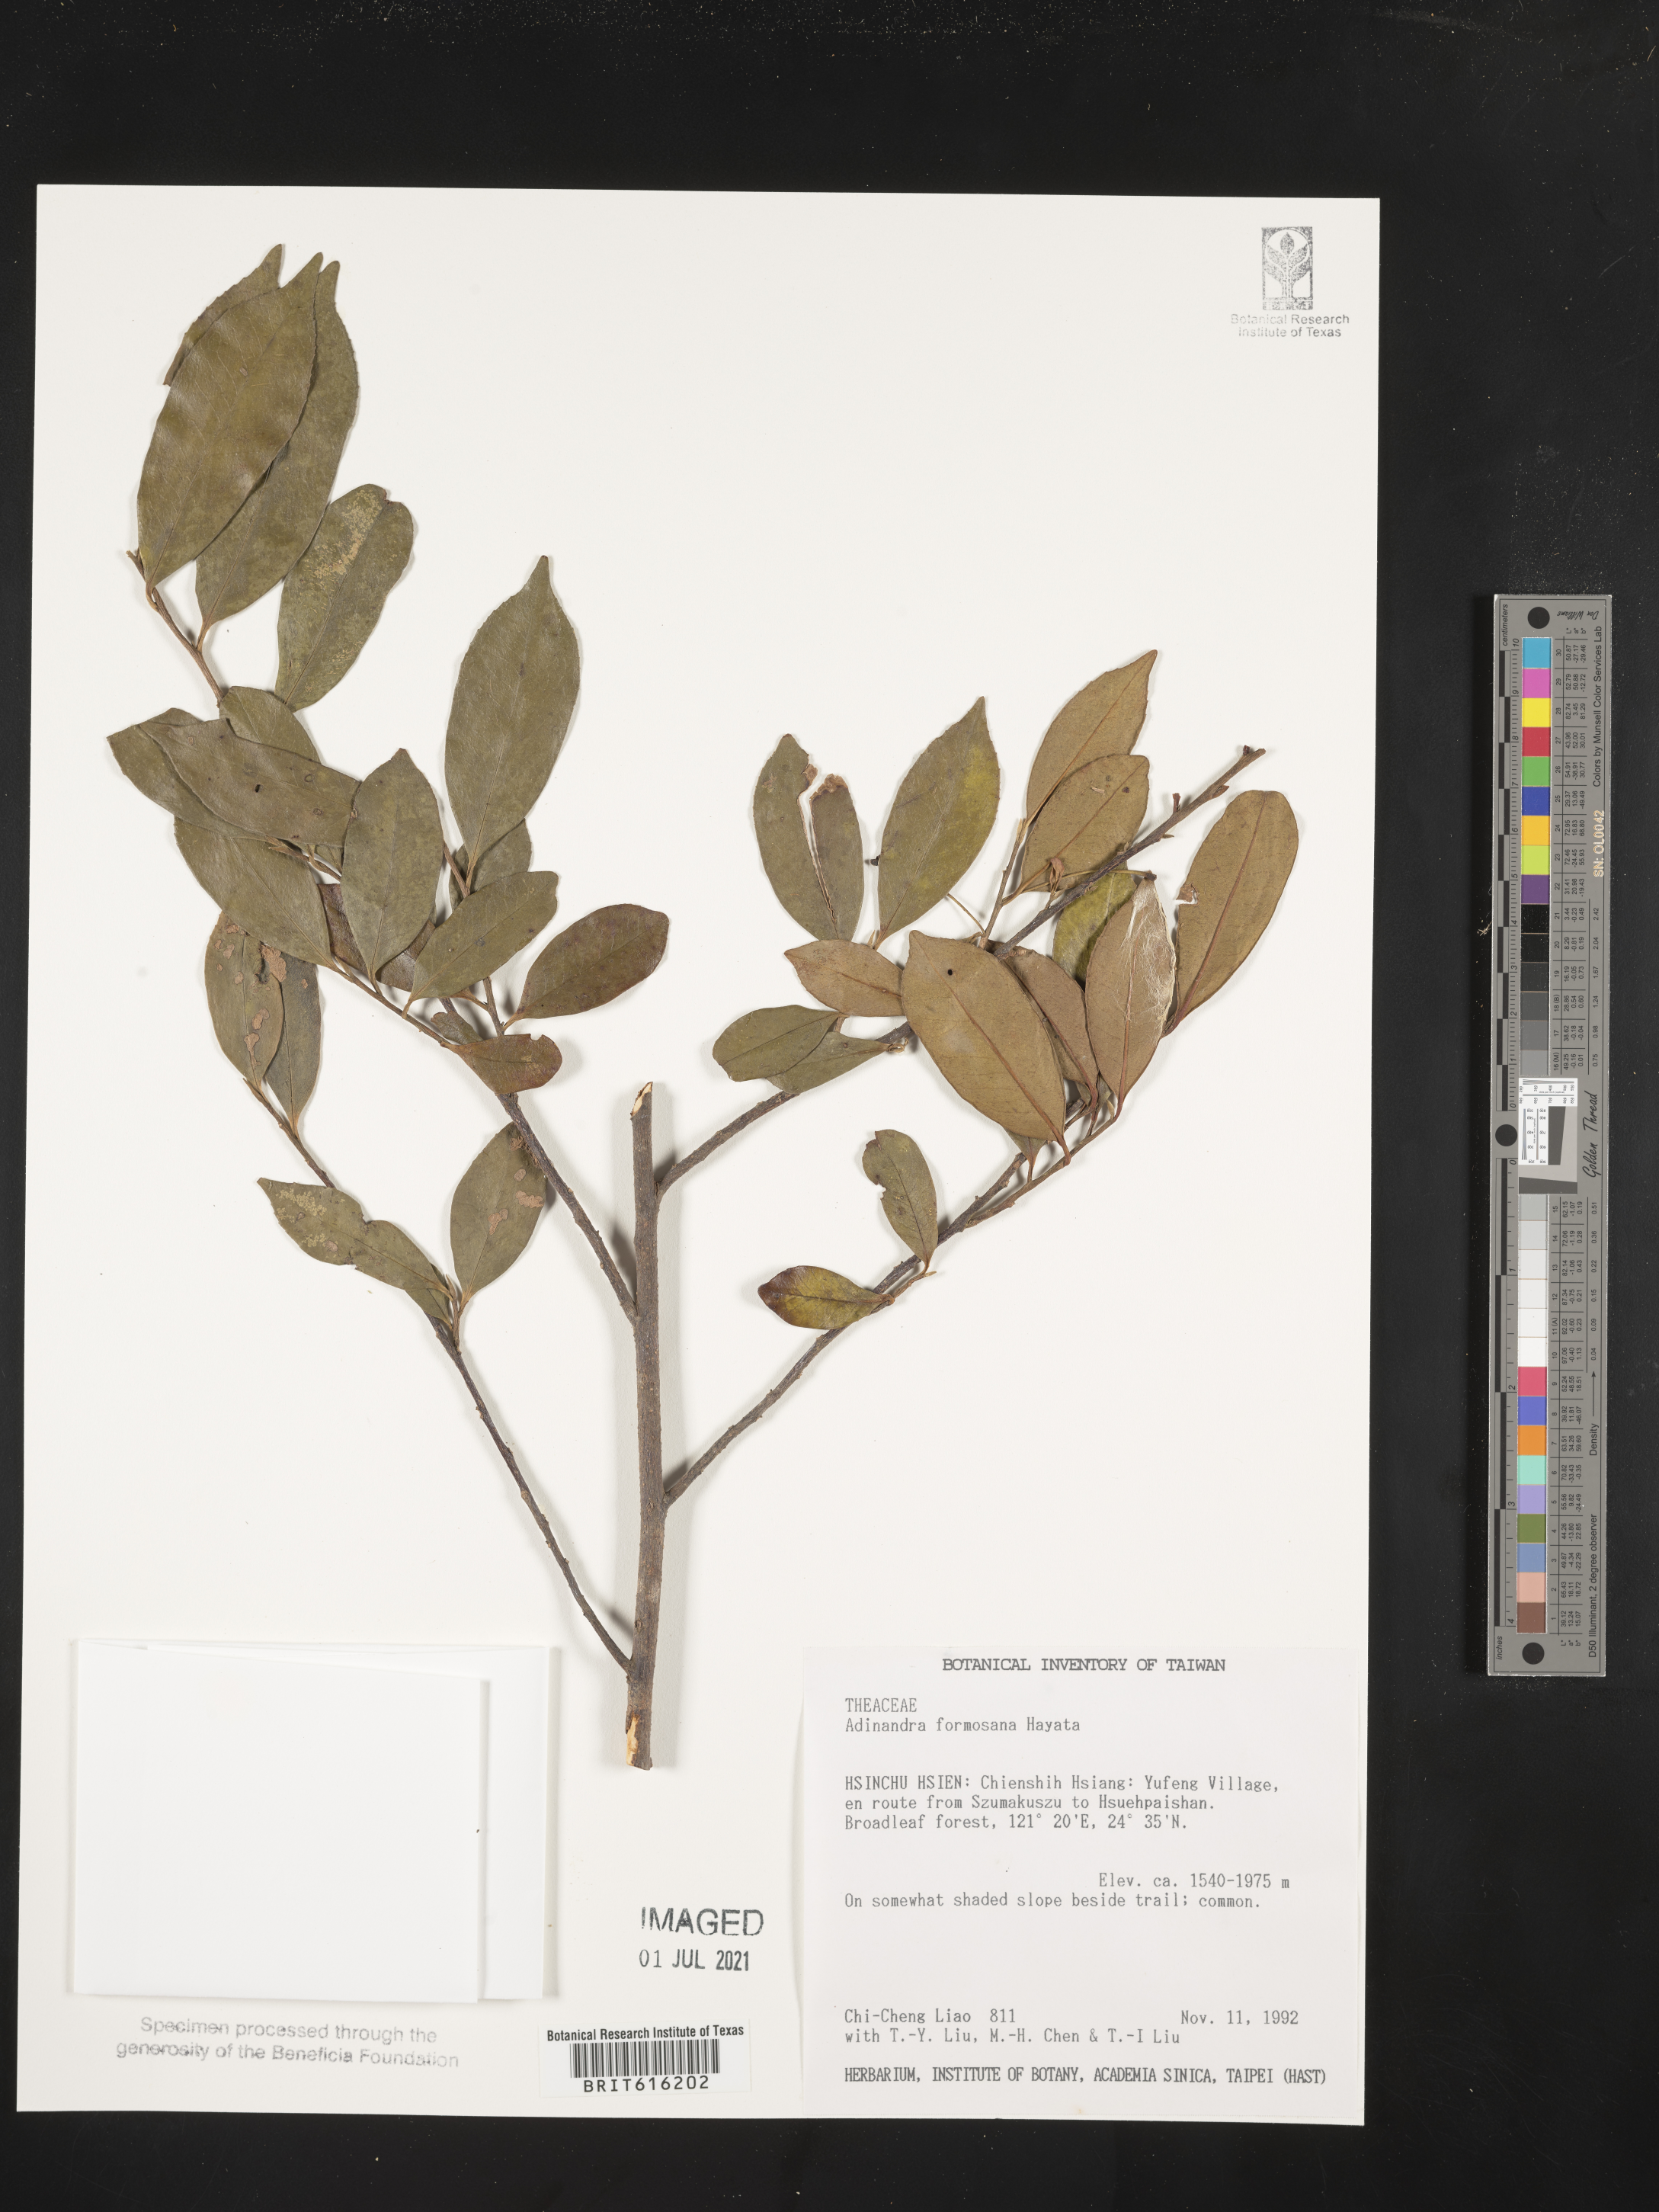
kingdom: Plantae
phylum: Tracheophyta
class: Magnoliopsida
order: Ericales
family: Pentaphylacaceae
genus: Adinandra
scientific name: Adinandra formosana
